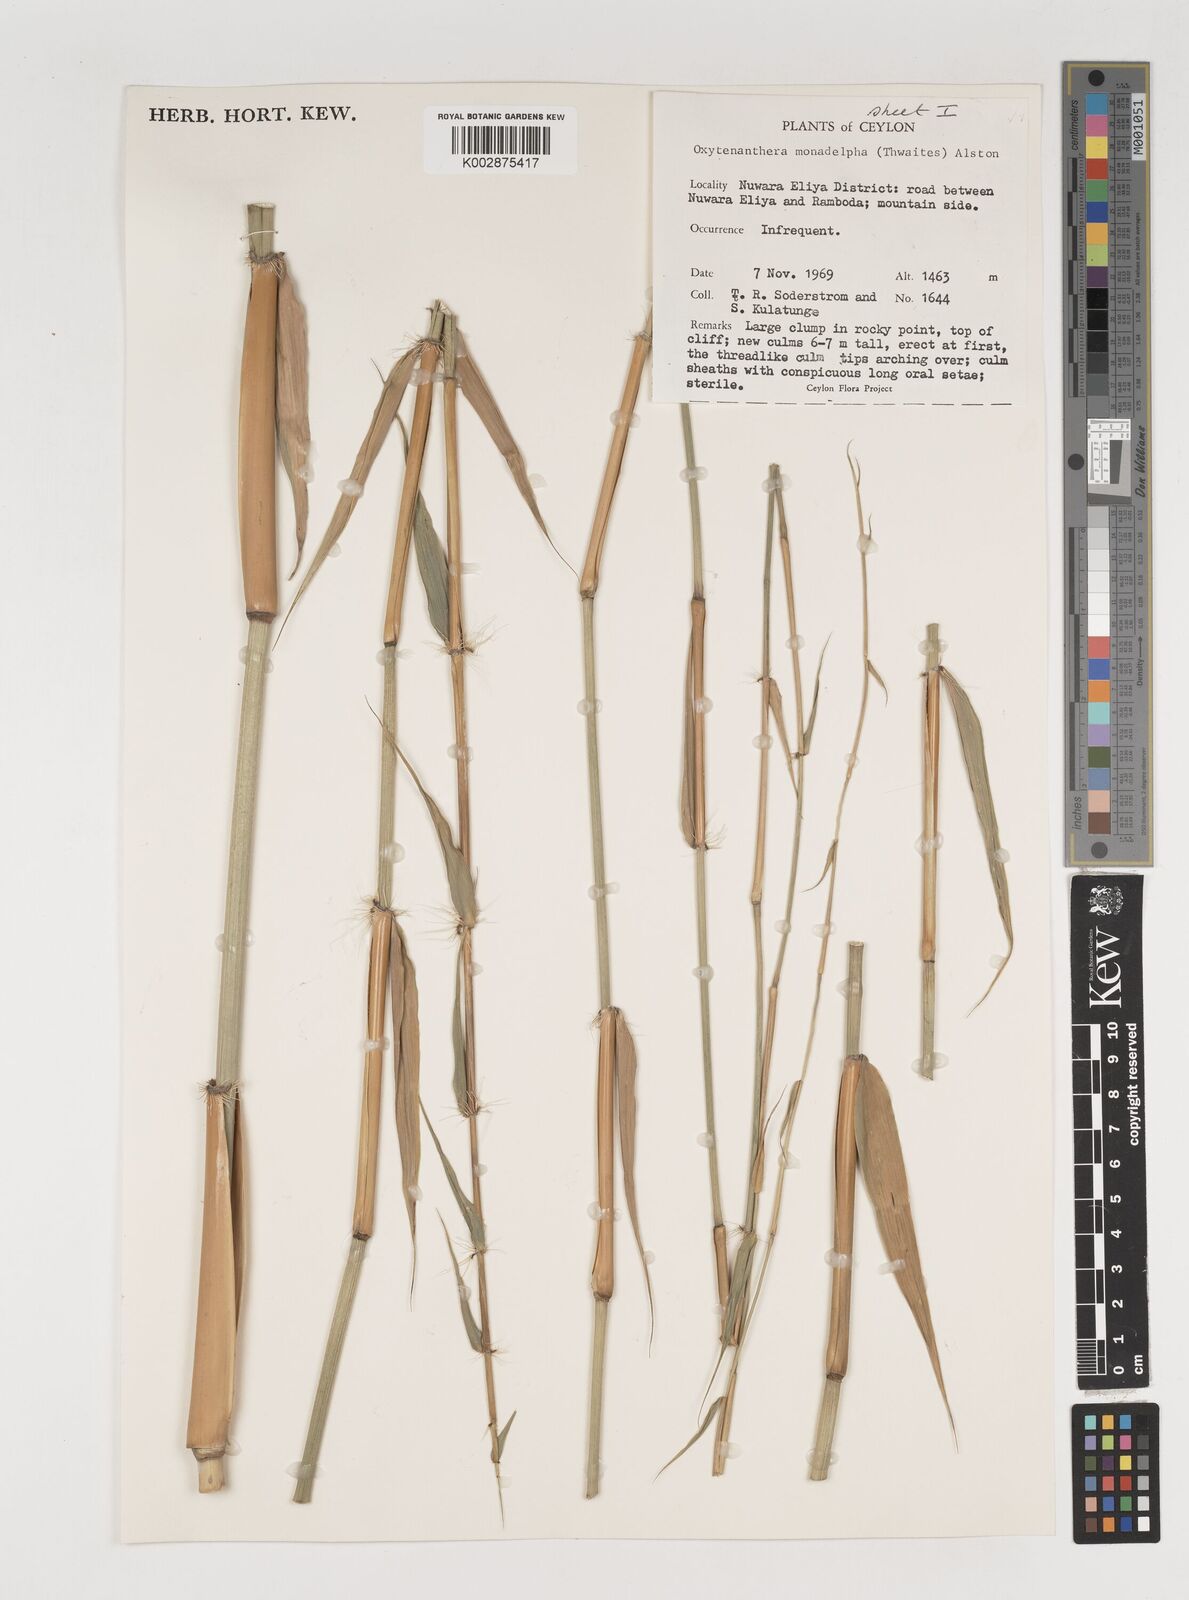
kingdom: Plantae
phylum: Tracheophyta
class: Liliopsida
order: Poales
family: Poaceae
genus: Dendrocalamus
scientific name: Dendrocalamus
